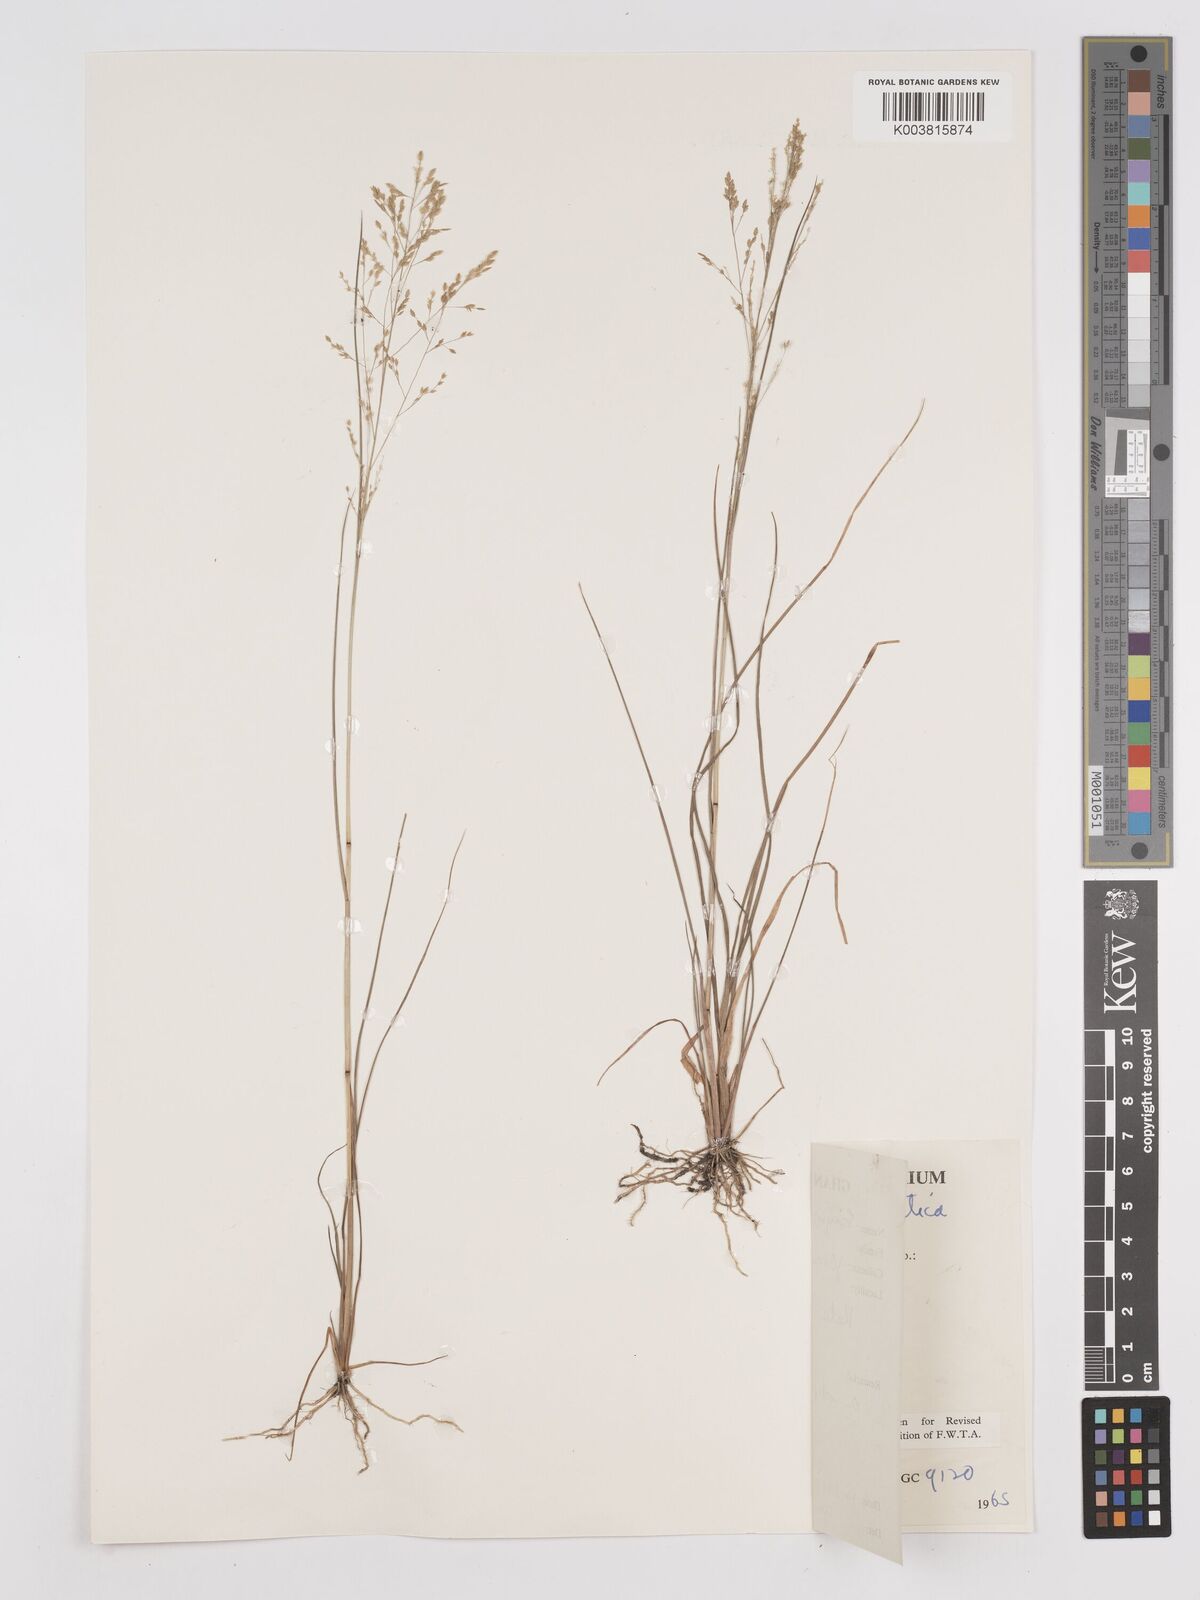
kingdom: Plantae
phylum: Tracheophyta
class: Liliopsida
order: Poales
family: Poaceae
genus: Eragrostis
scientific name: Eragrostis gangetica
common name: Slimflower lovegrass
